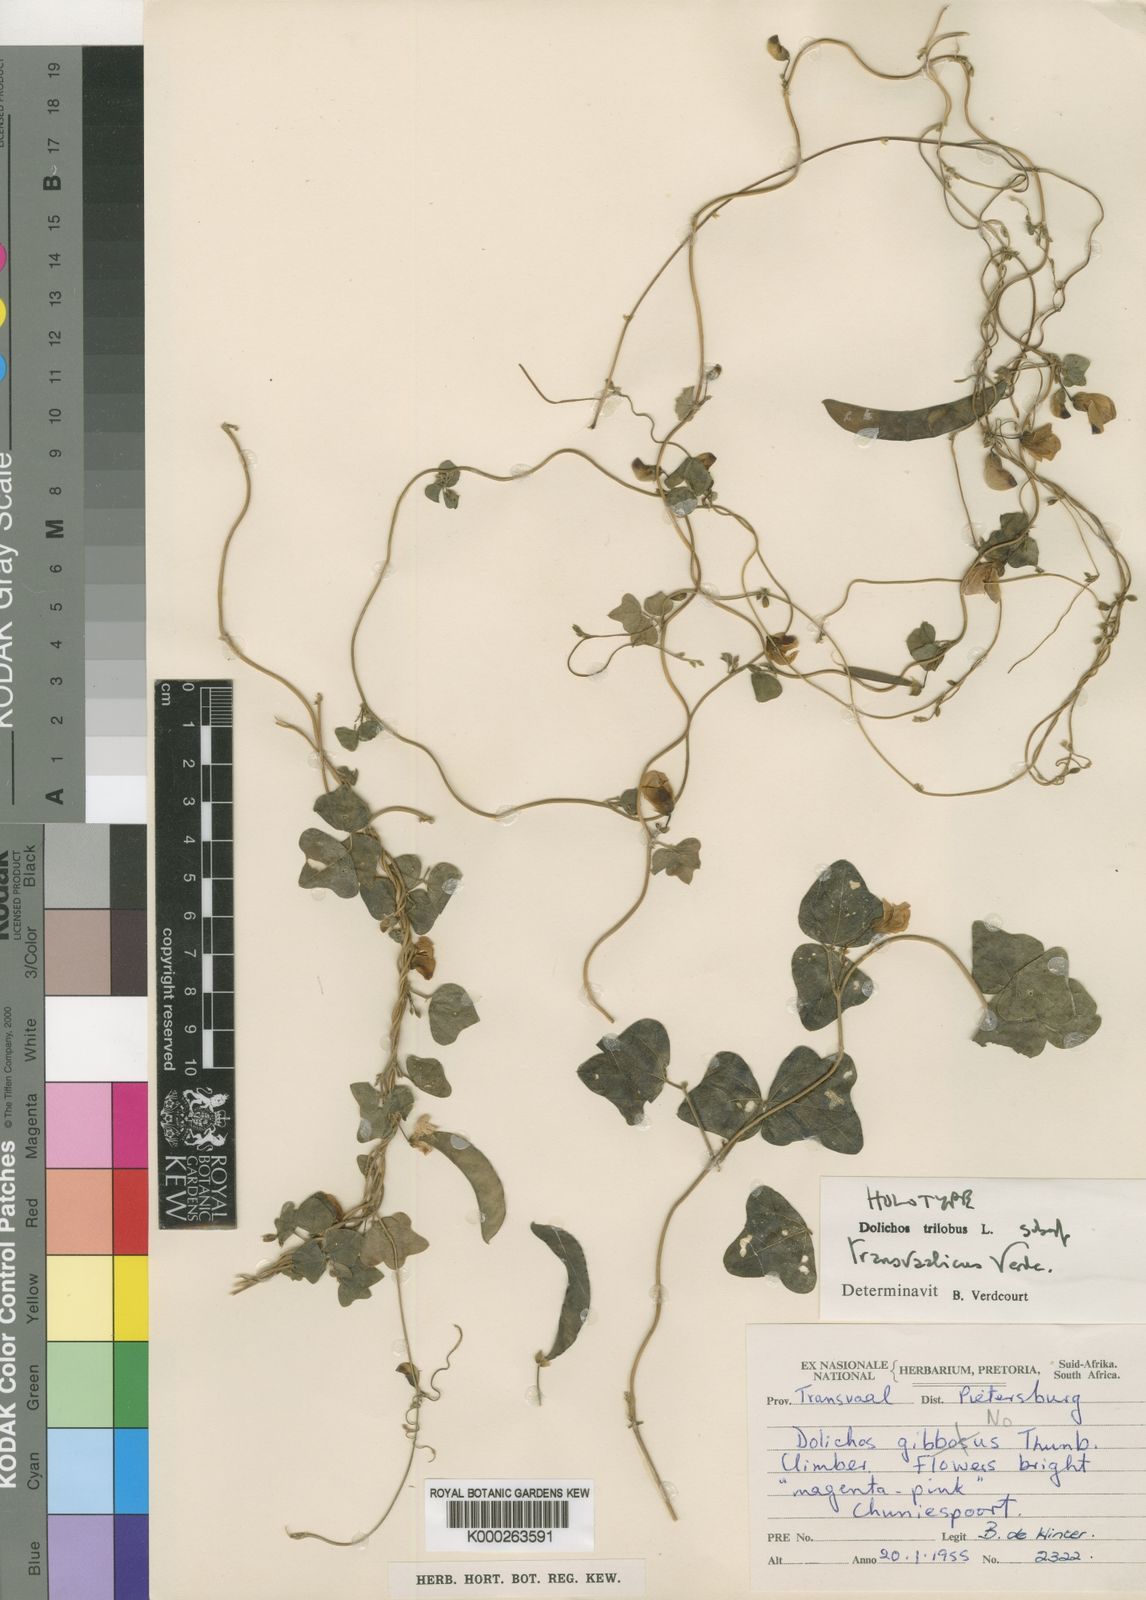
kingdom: Plantae
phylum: Tracheophyta
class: Magnoliopsida
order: Fabales
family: Fabaceae
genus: Dolichos
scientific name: Dolichos trilobus
